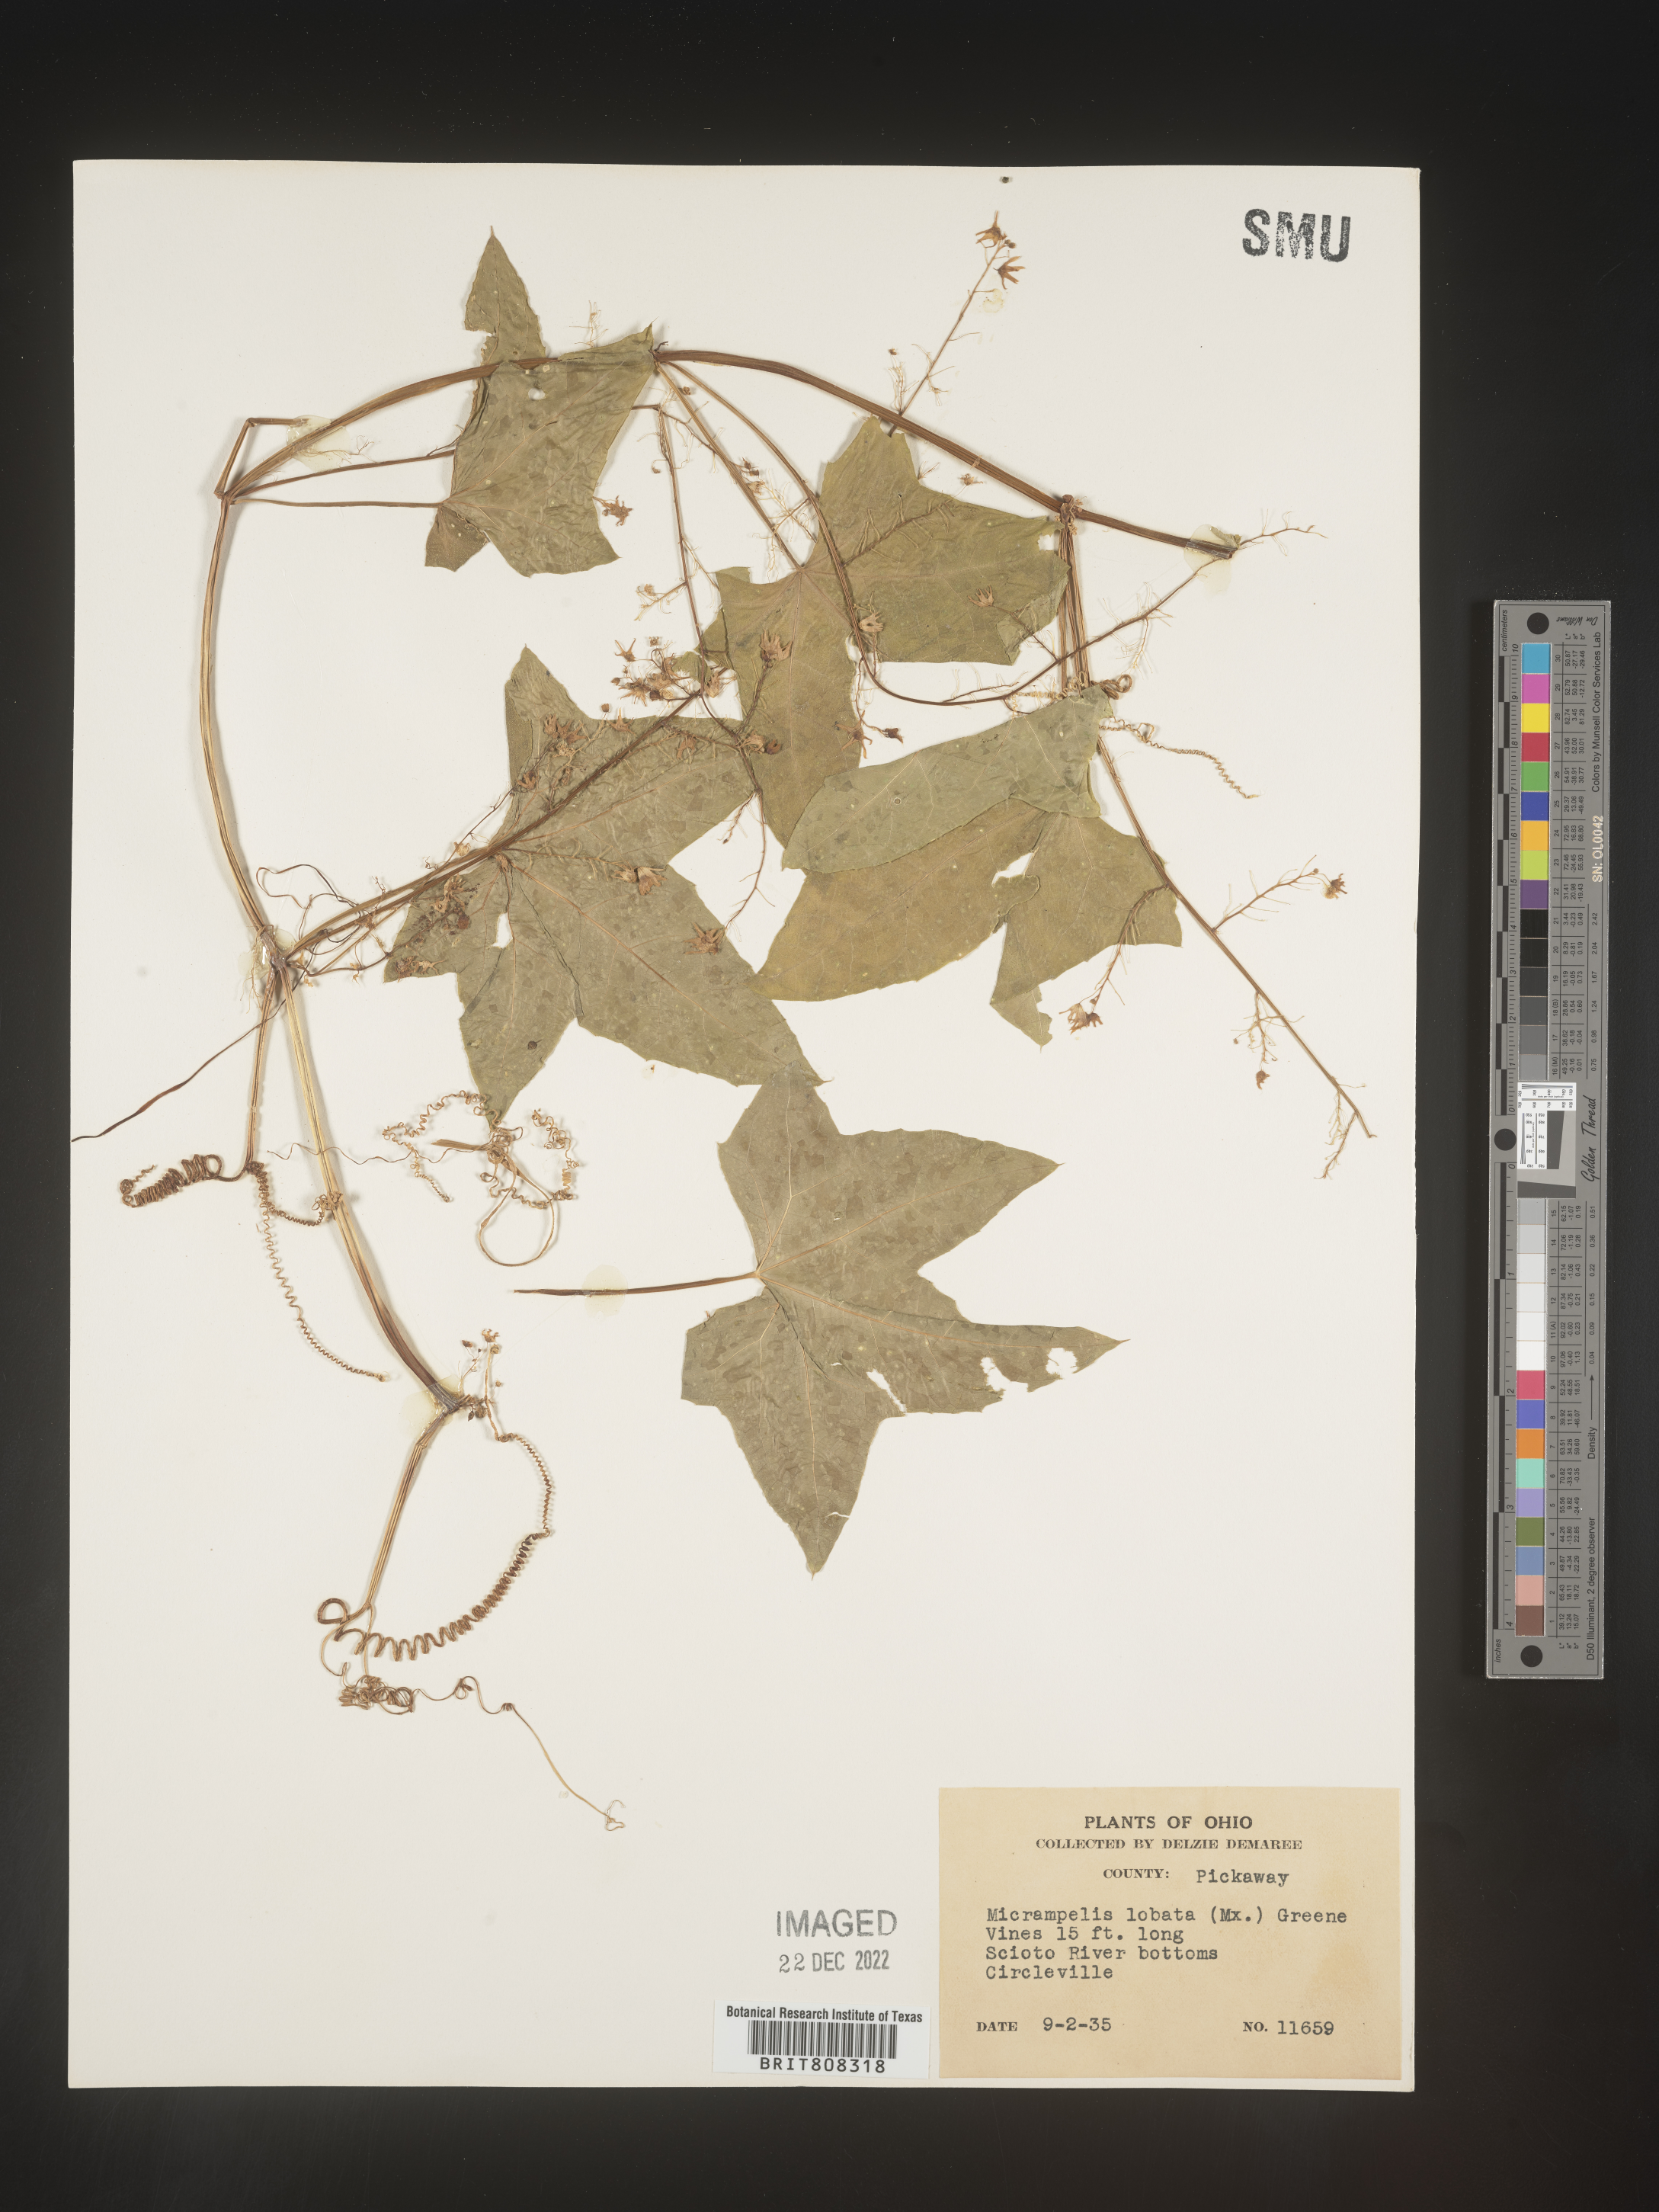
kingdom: Plantae
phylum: Tracheophyta
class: Magnoliopsida
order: Cucurbitales
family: Cucurbitaceae
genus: Echinocystis
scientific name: Echinocystis
